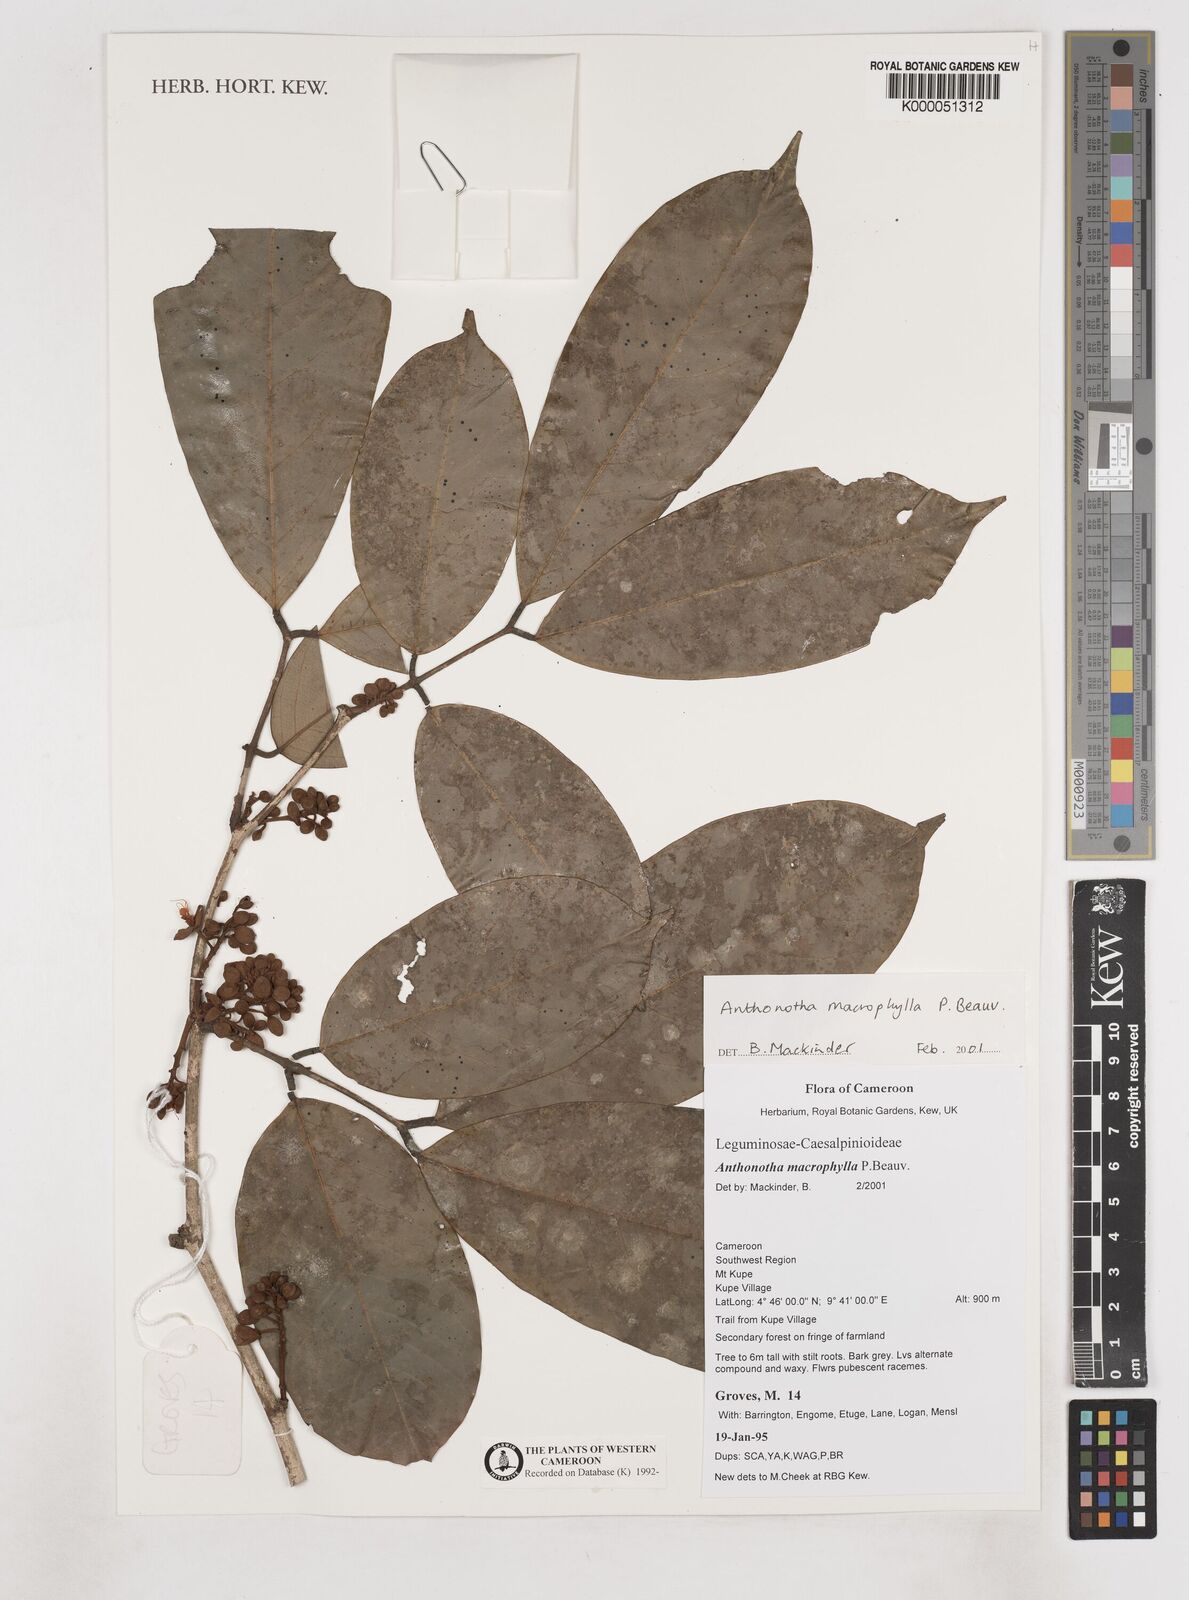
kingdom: Plantae
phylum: Tracheophyta
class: Magnoliopsida
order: Fabales
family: Fabaceae
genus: Anthonotha
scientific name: Anthonotha macrophylla
